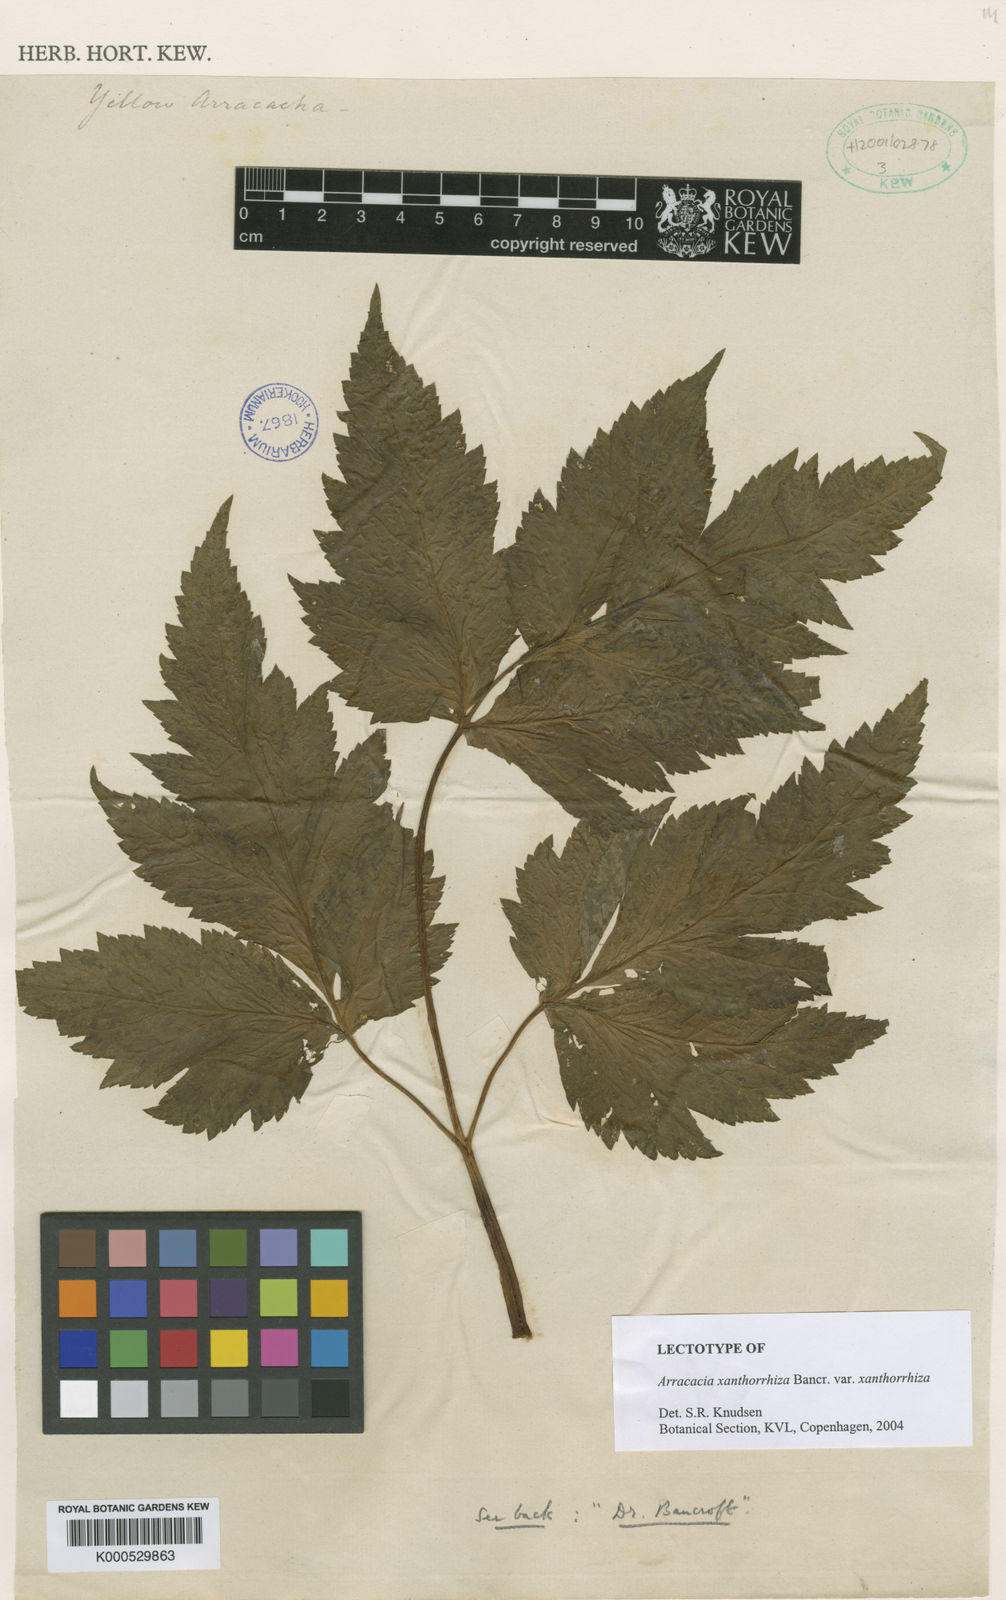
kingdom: Plantae
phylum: Tracheophyta
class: Magnoliopsida
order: Apiales
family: Apiaceae
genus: Arracacia
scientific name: Arracacia xanthorrhiza
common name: Peruvian-carrot
